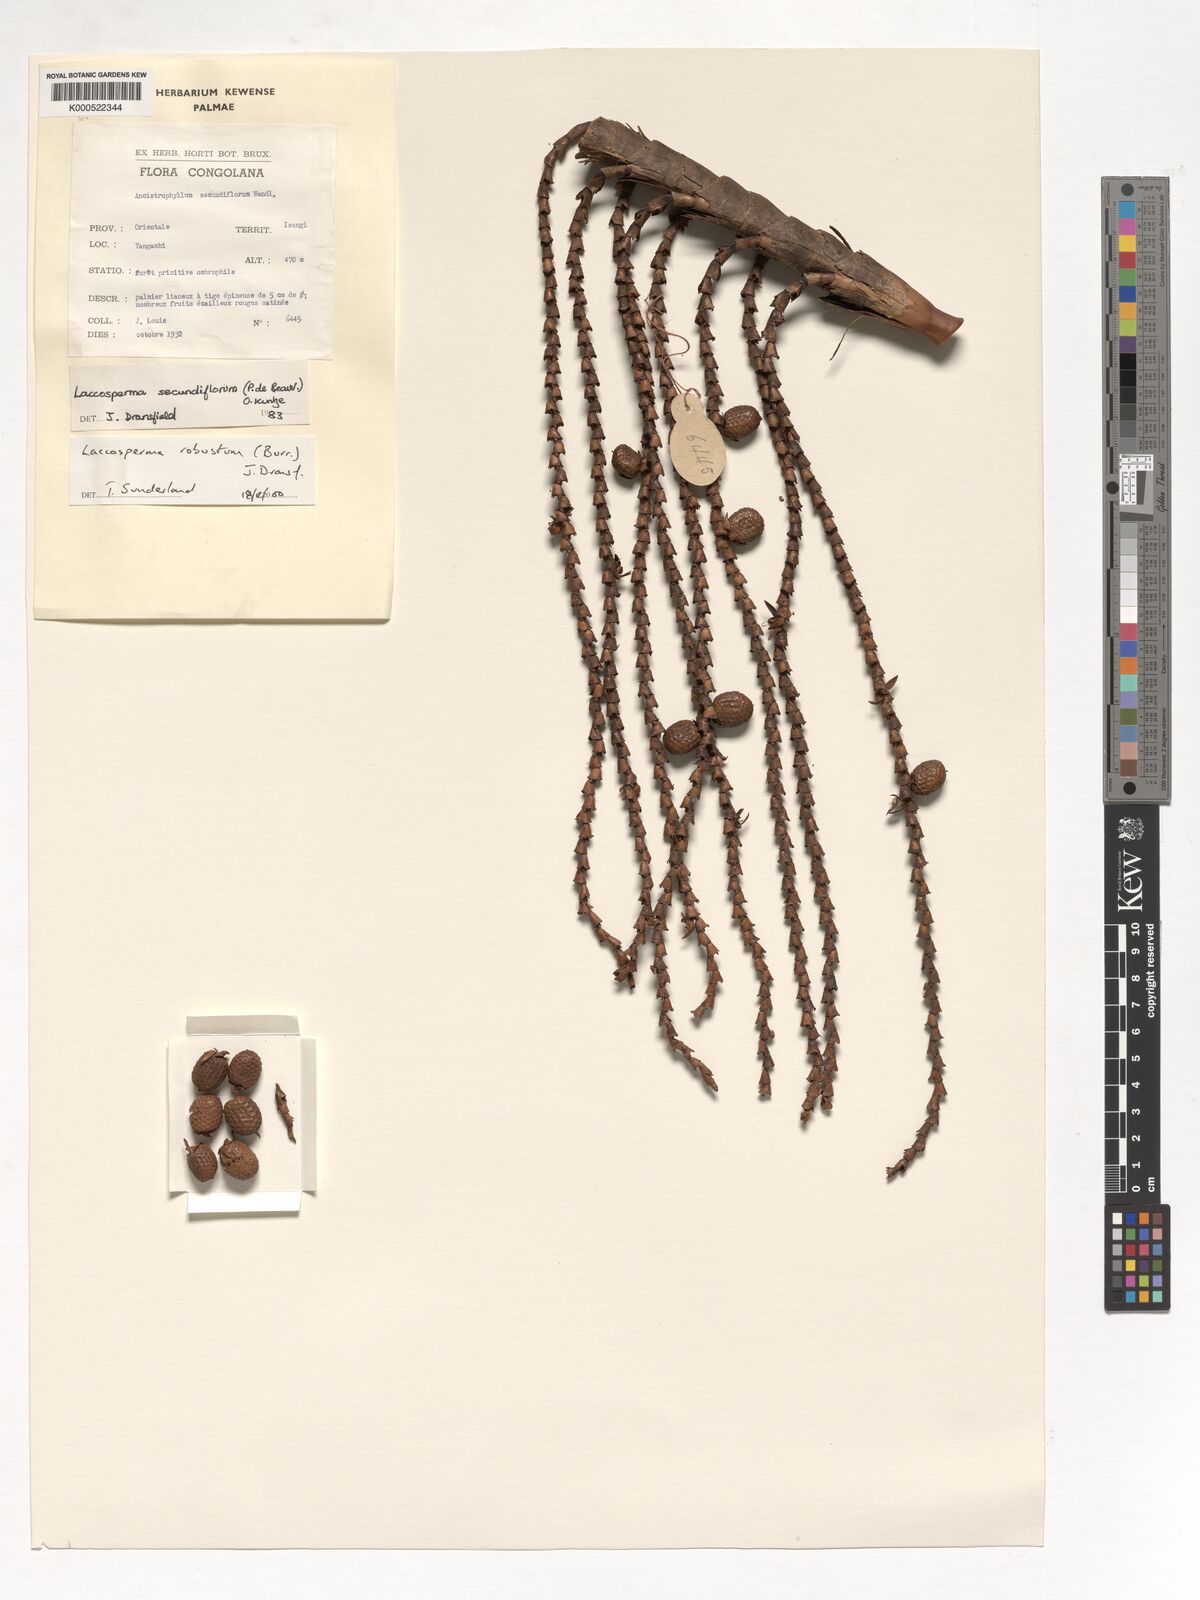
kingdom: Plantae
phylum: Tracheophyta
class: Liliopsida
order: Arecales
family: Arecaceae
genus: Laccosperma
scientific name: Laccosperma robustum
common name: Rattan
